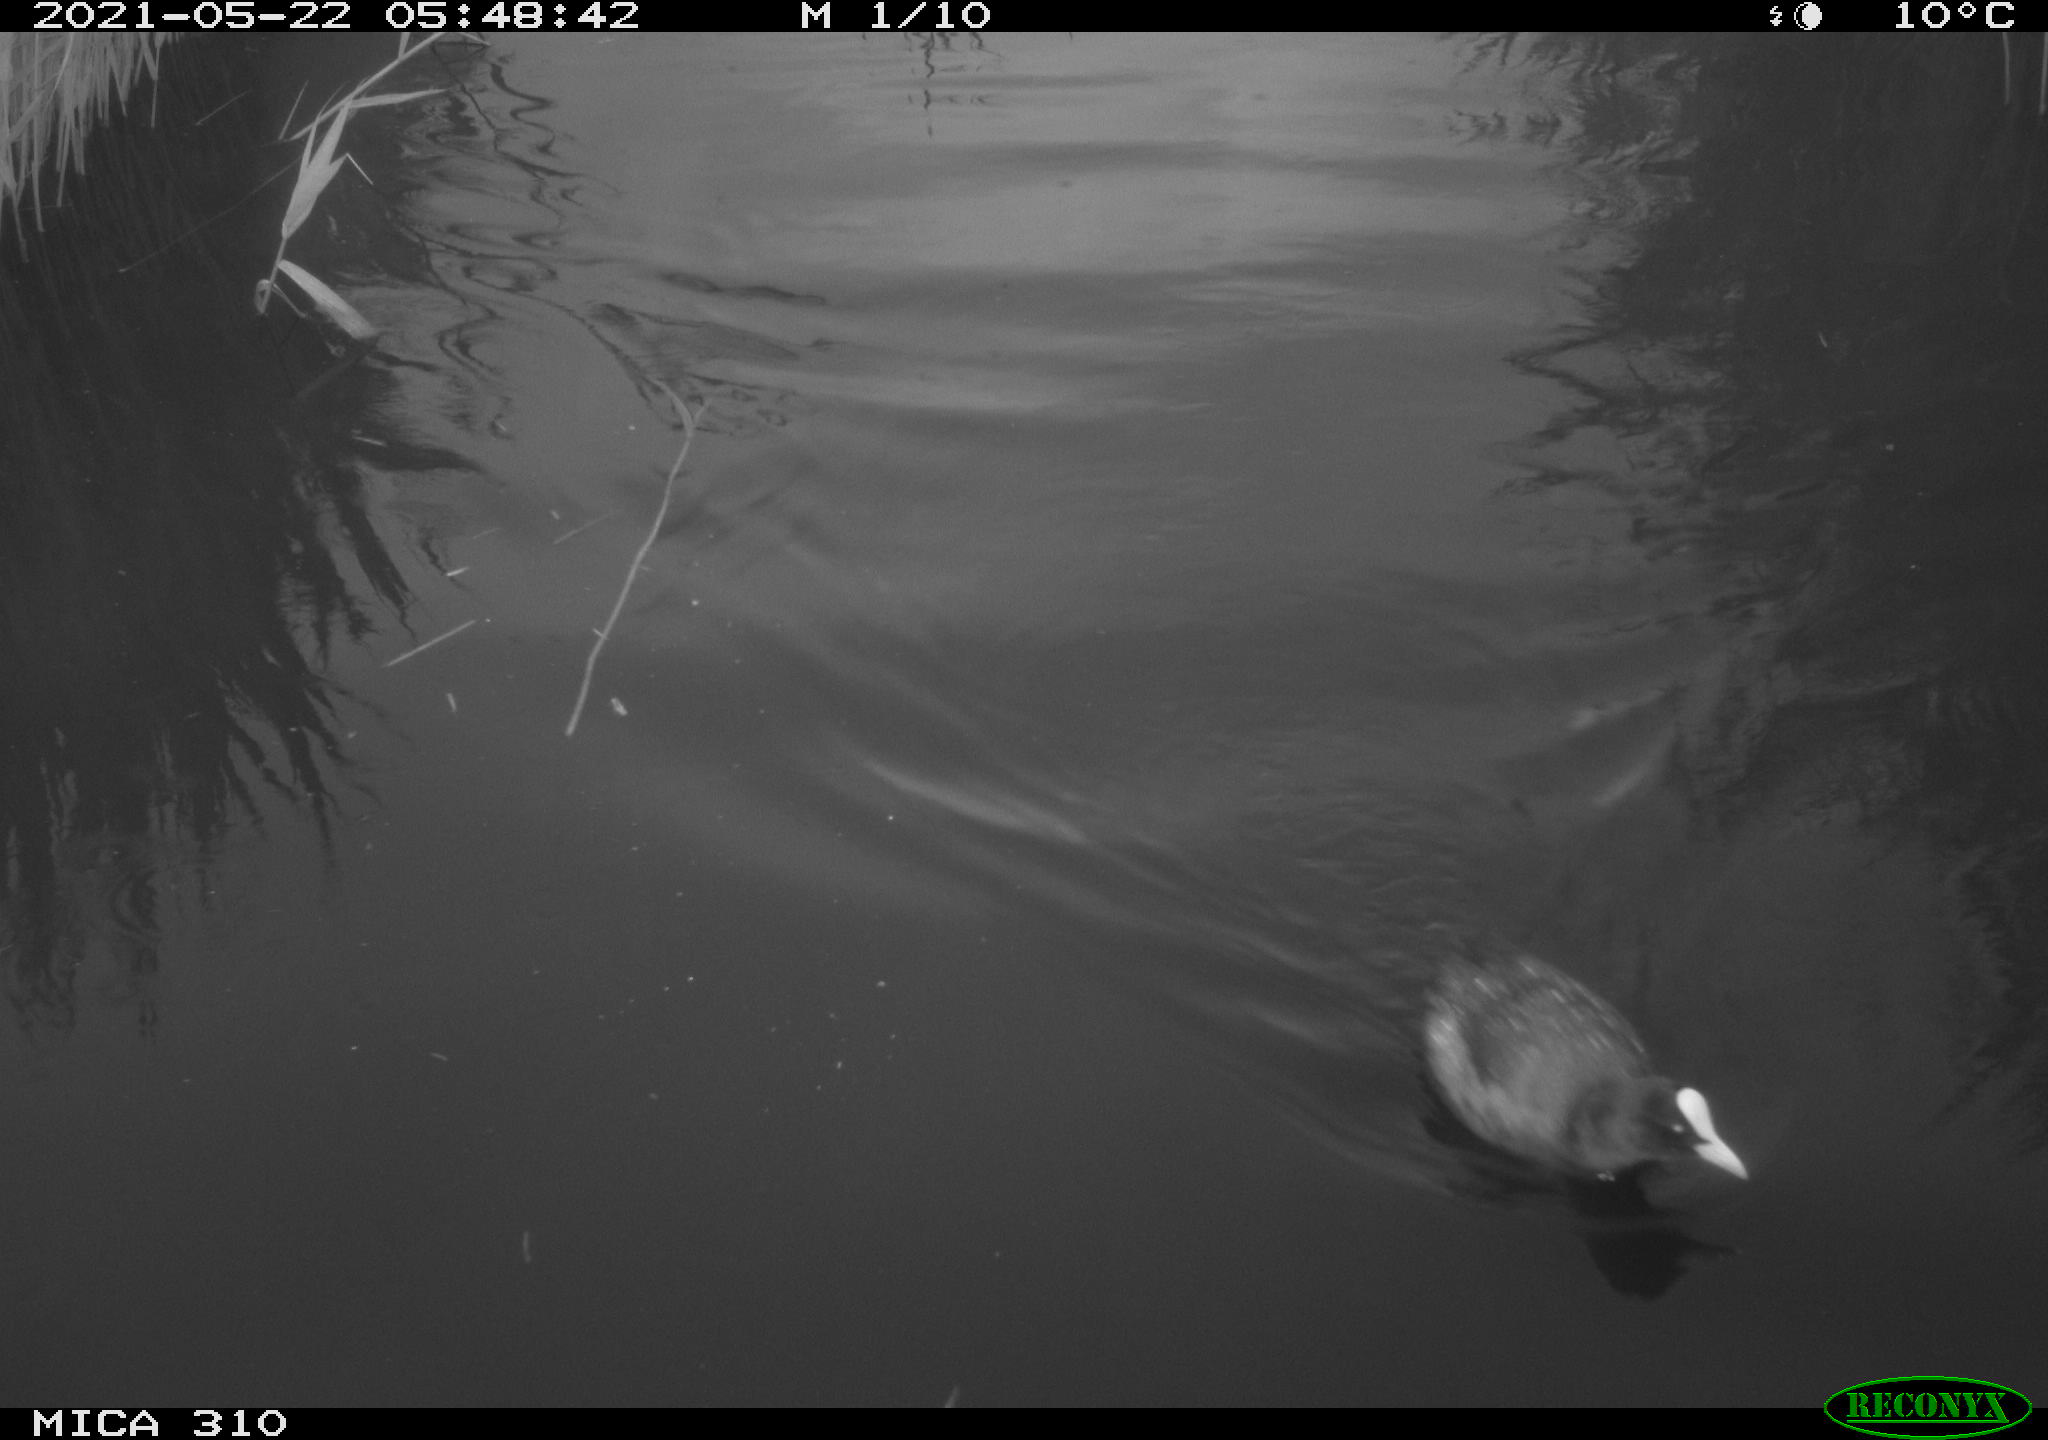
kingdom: Animalia
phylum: Chordata
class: Aves
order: Gruiformes
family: Rallidae
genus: Fulica
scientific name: Fulica atra
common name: Eurasian coot
